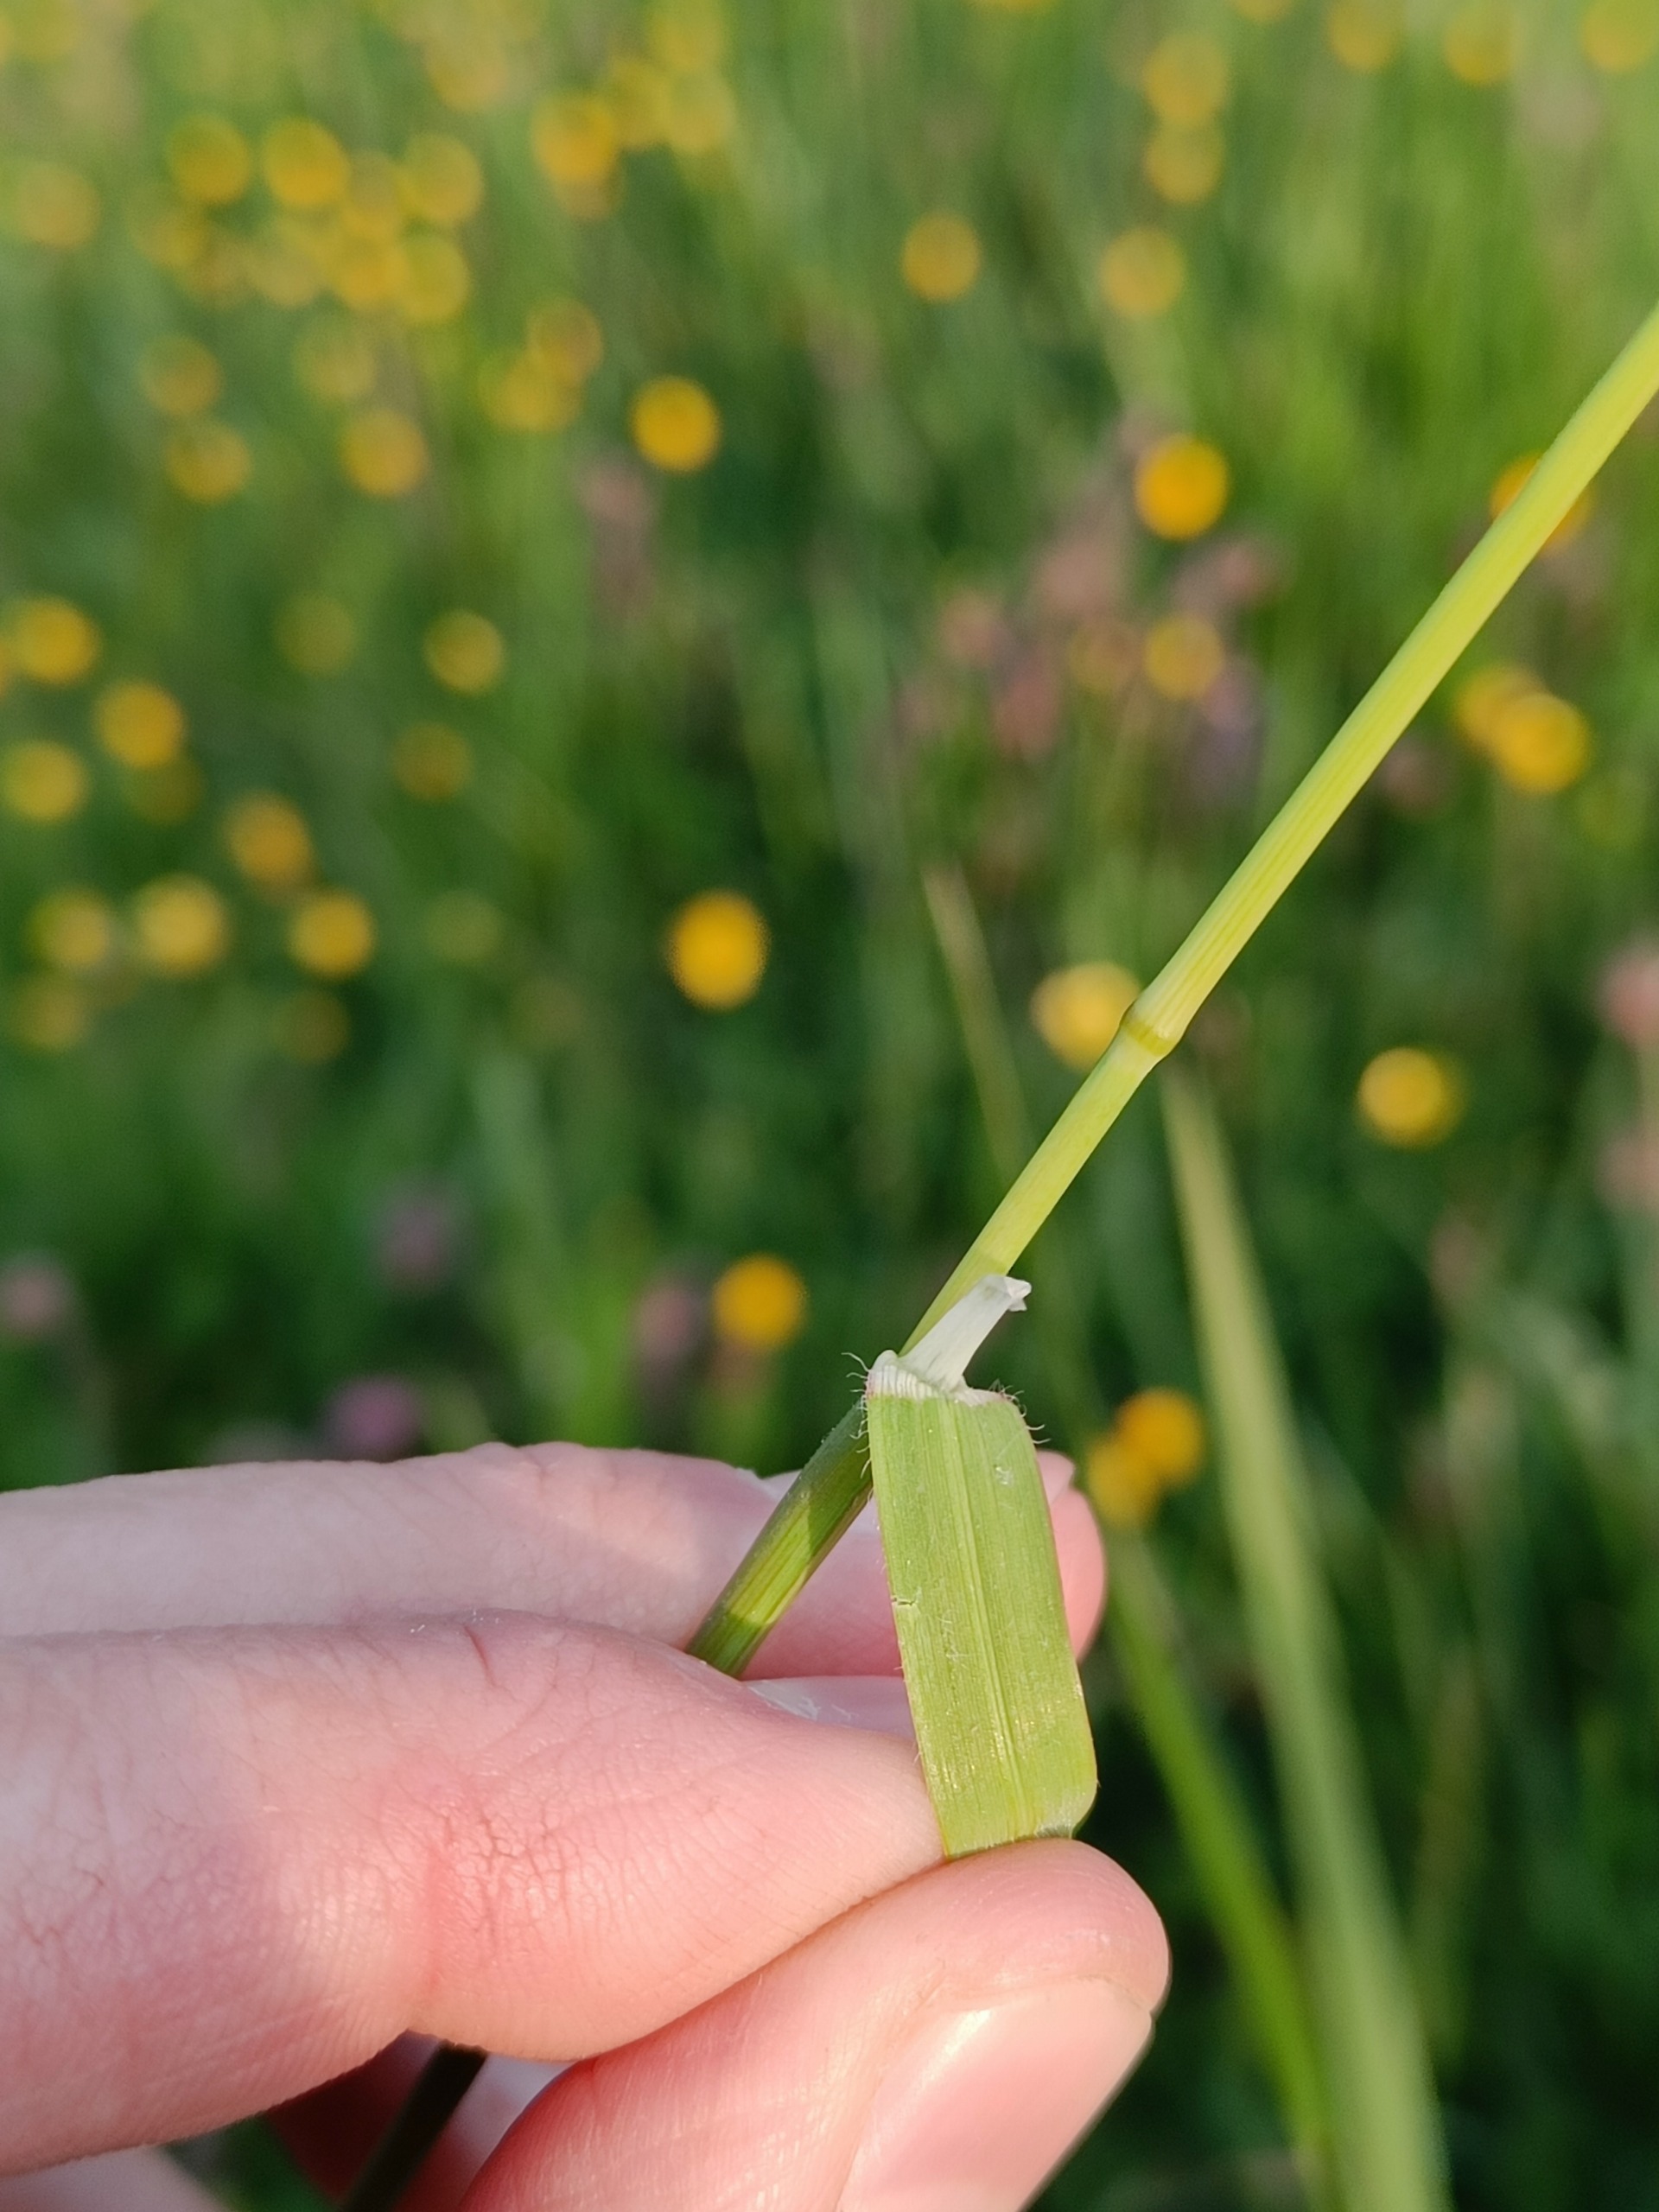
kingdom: Plantae
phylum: Tracheophyta
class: Liliopsida
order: Poales
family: Poaceae
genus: Avenula
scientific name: Avenula pubescens
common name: Dunet havre
